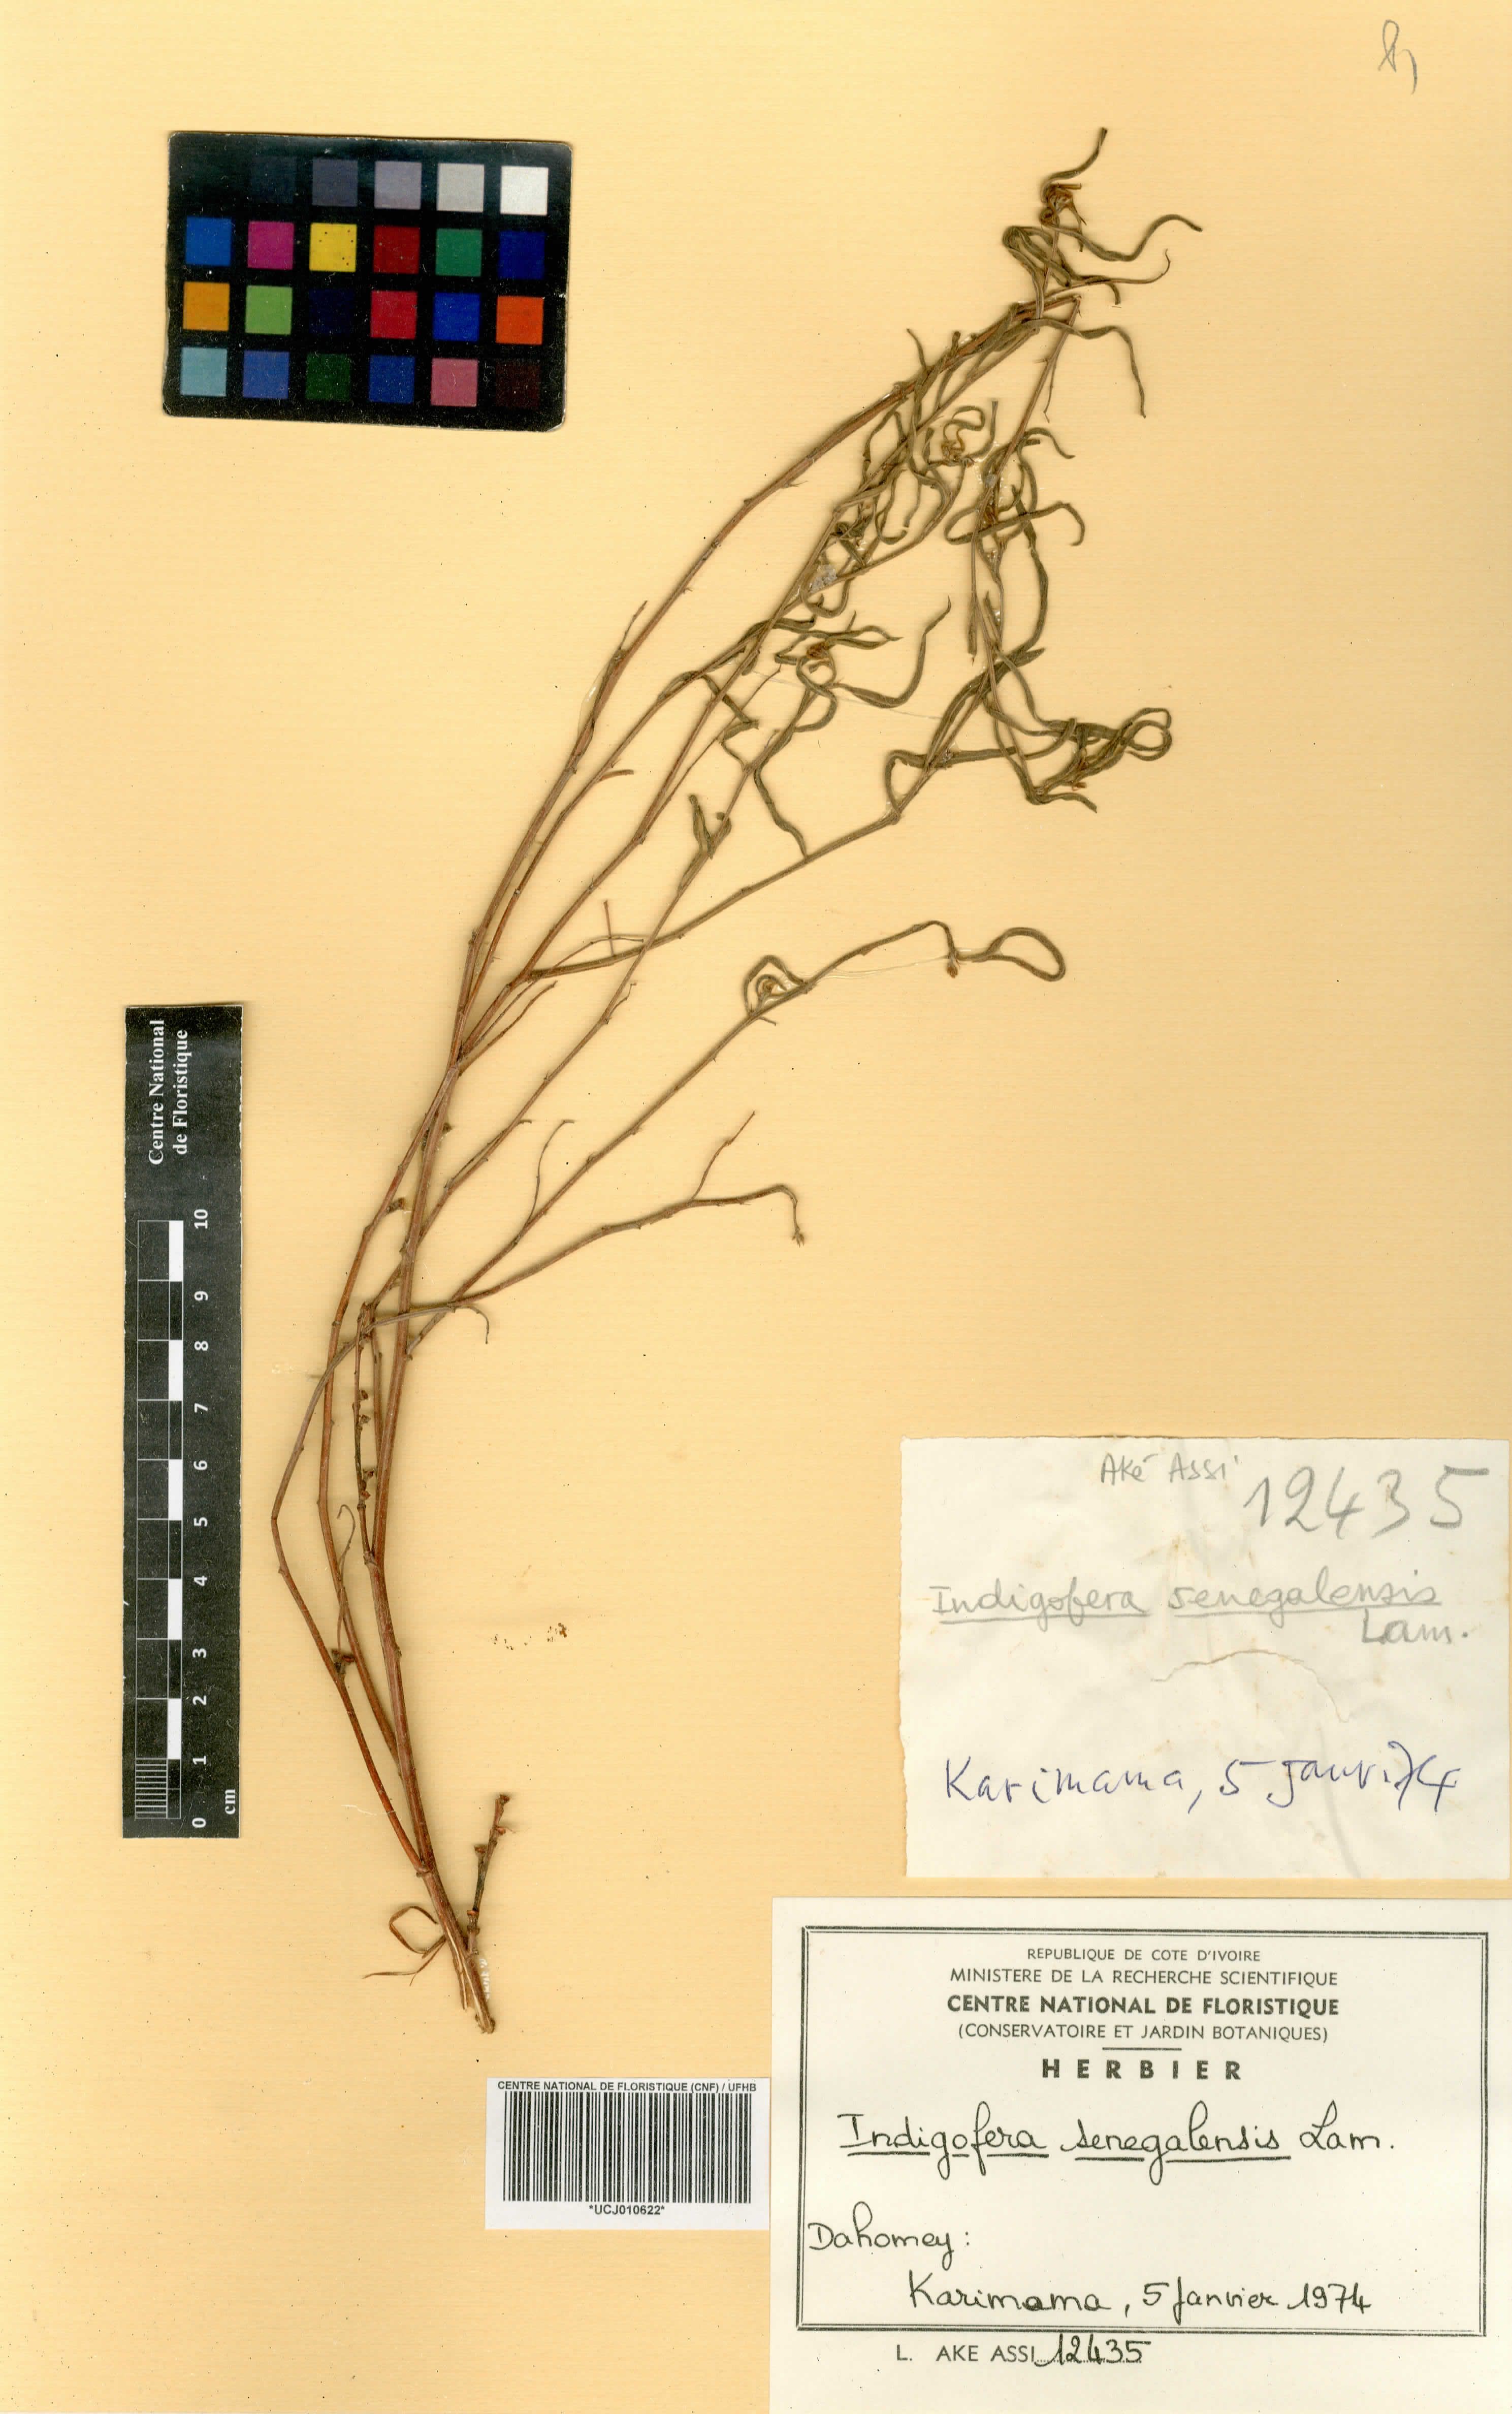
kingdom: Plantae
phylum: Tracheophyta
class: Magnoliopsida
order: Fabales
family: Fabaceae
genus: Indigofera
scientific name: Indigofera suffruticosa
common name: Anil de pasto
